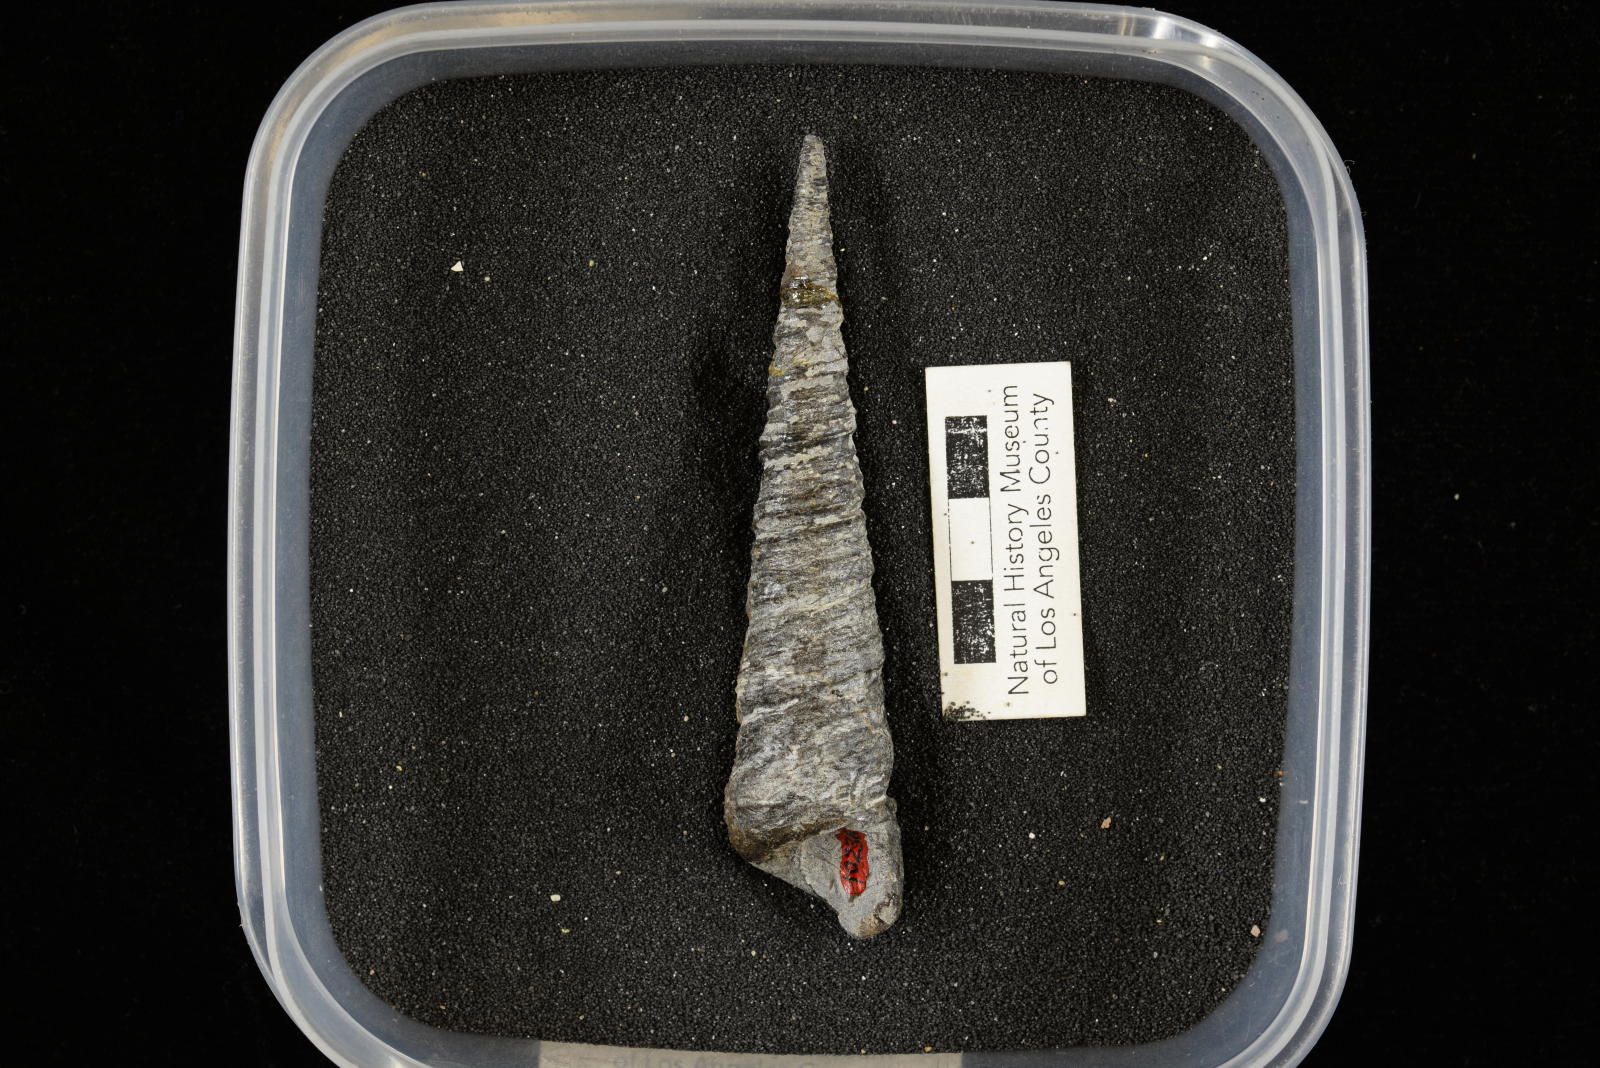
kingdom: Animalia
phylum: Mollusca
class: Gastropoda
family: Turritellidae
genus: Turritella
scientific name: Turritella
